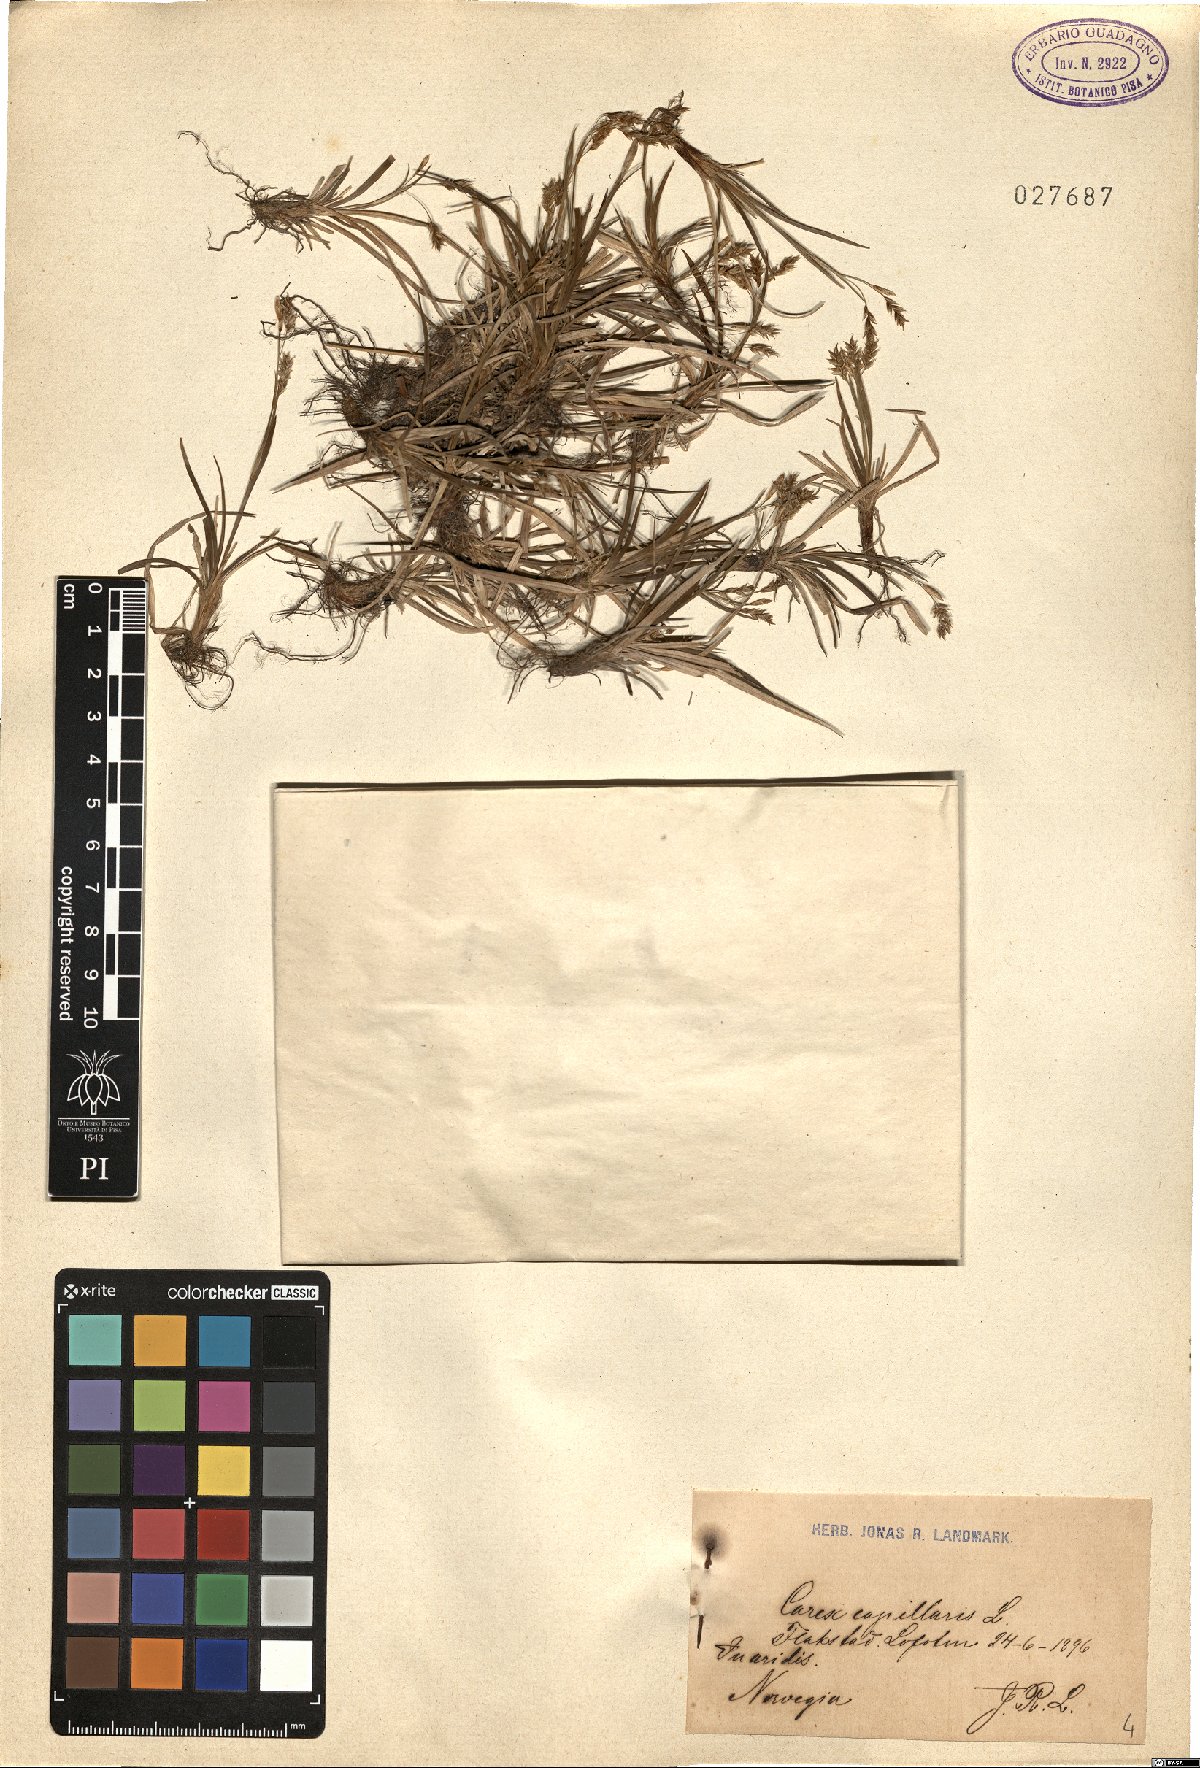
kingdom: Plantae
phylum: Tracheophyta
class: Liliopsida
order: Poales
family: Cyperaceae
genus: Carex
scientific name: Carex capillaris
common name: Hair sedge
